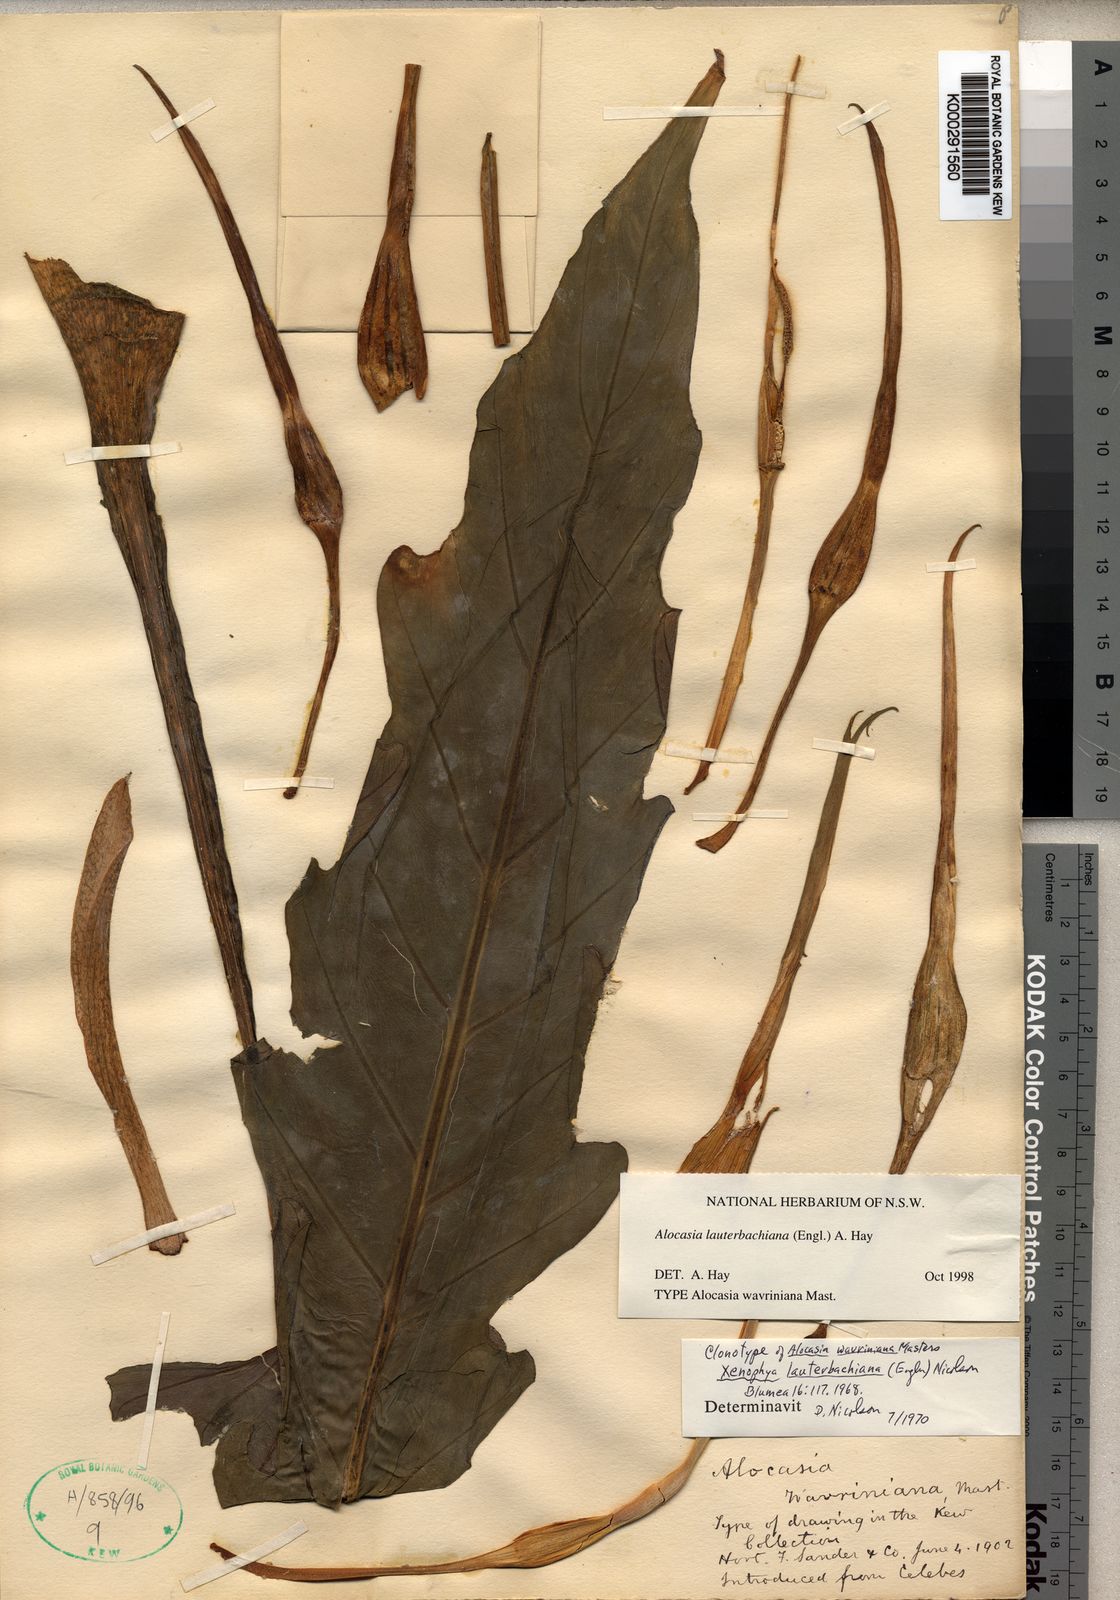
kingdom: Plantae
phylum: Tracheophyta
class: Liliopsida
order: Alismatales
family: Araceae
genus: Alocasia
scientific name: Alocasia lauterbachiana
